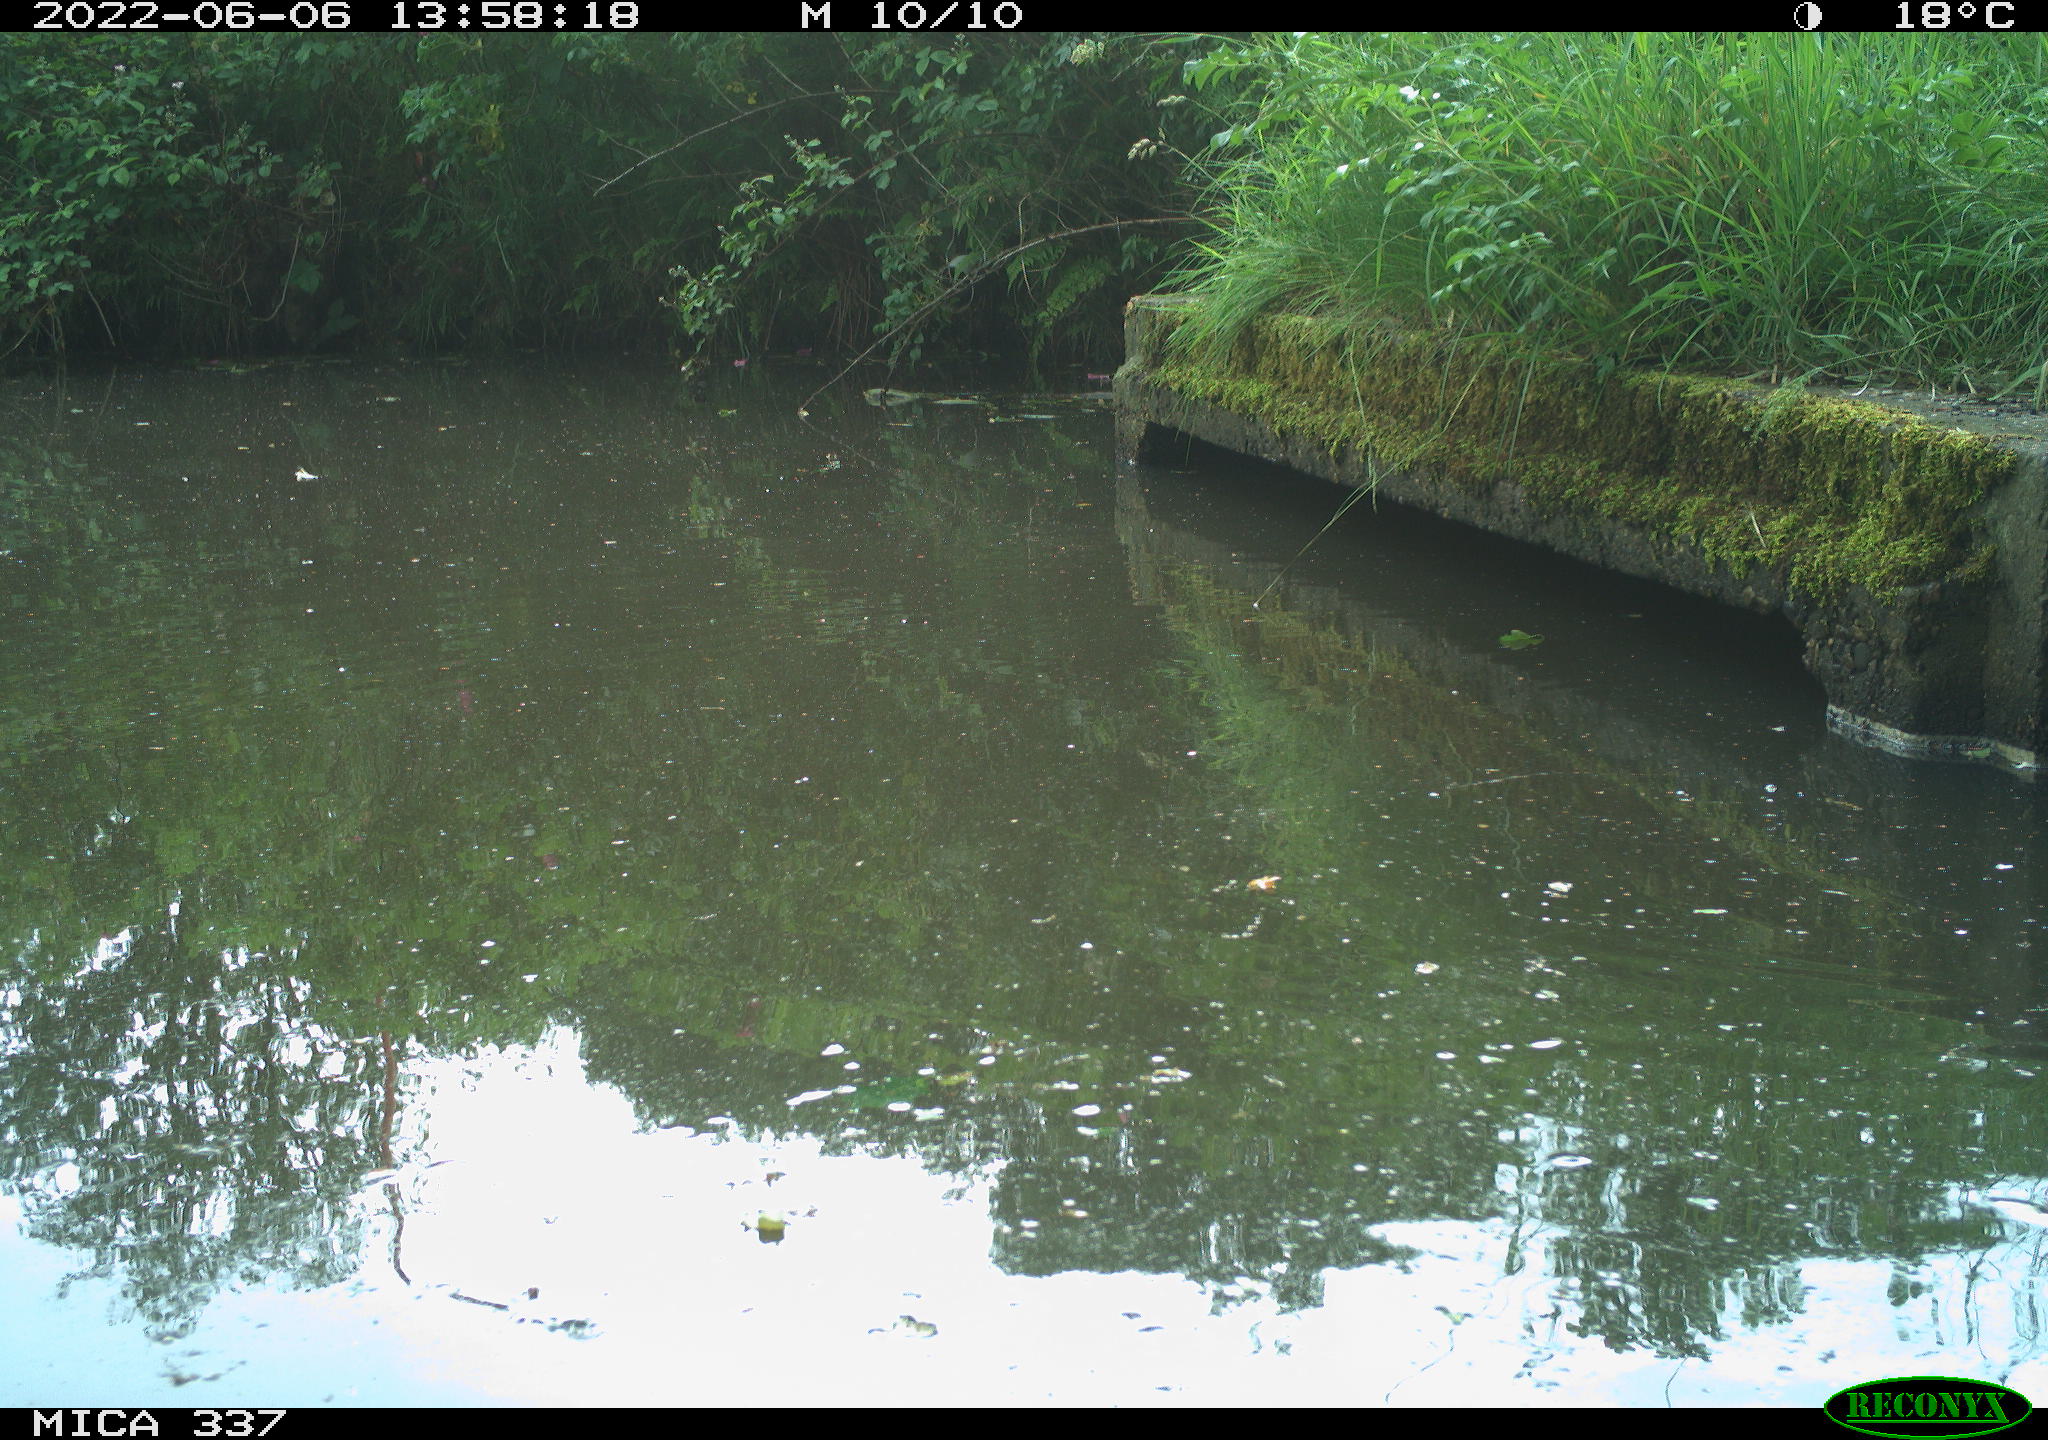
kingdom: Animalia
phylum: Chordata
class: Aves
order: Gruiformes
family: Rallidae
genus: Gallinula
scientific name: Gallinula chloropus
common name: Common moorhen
